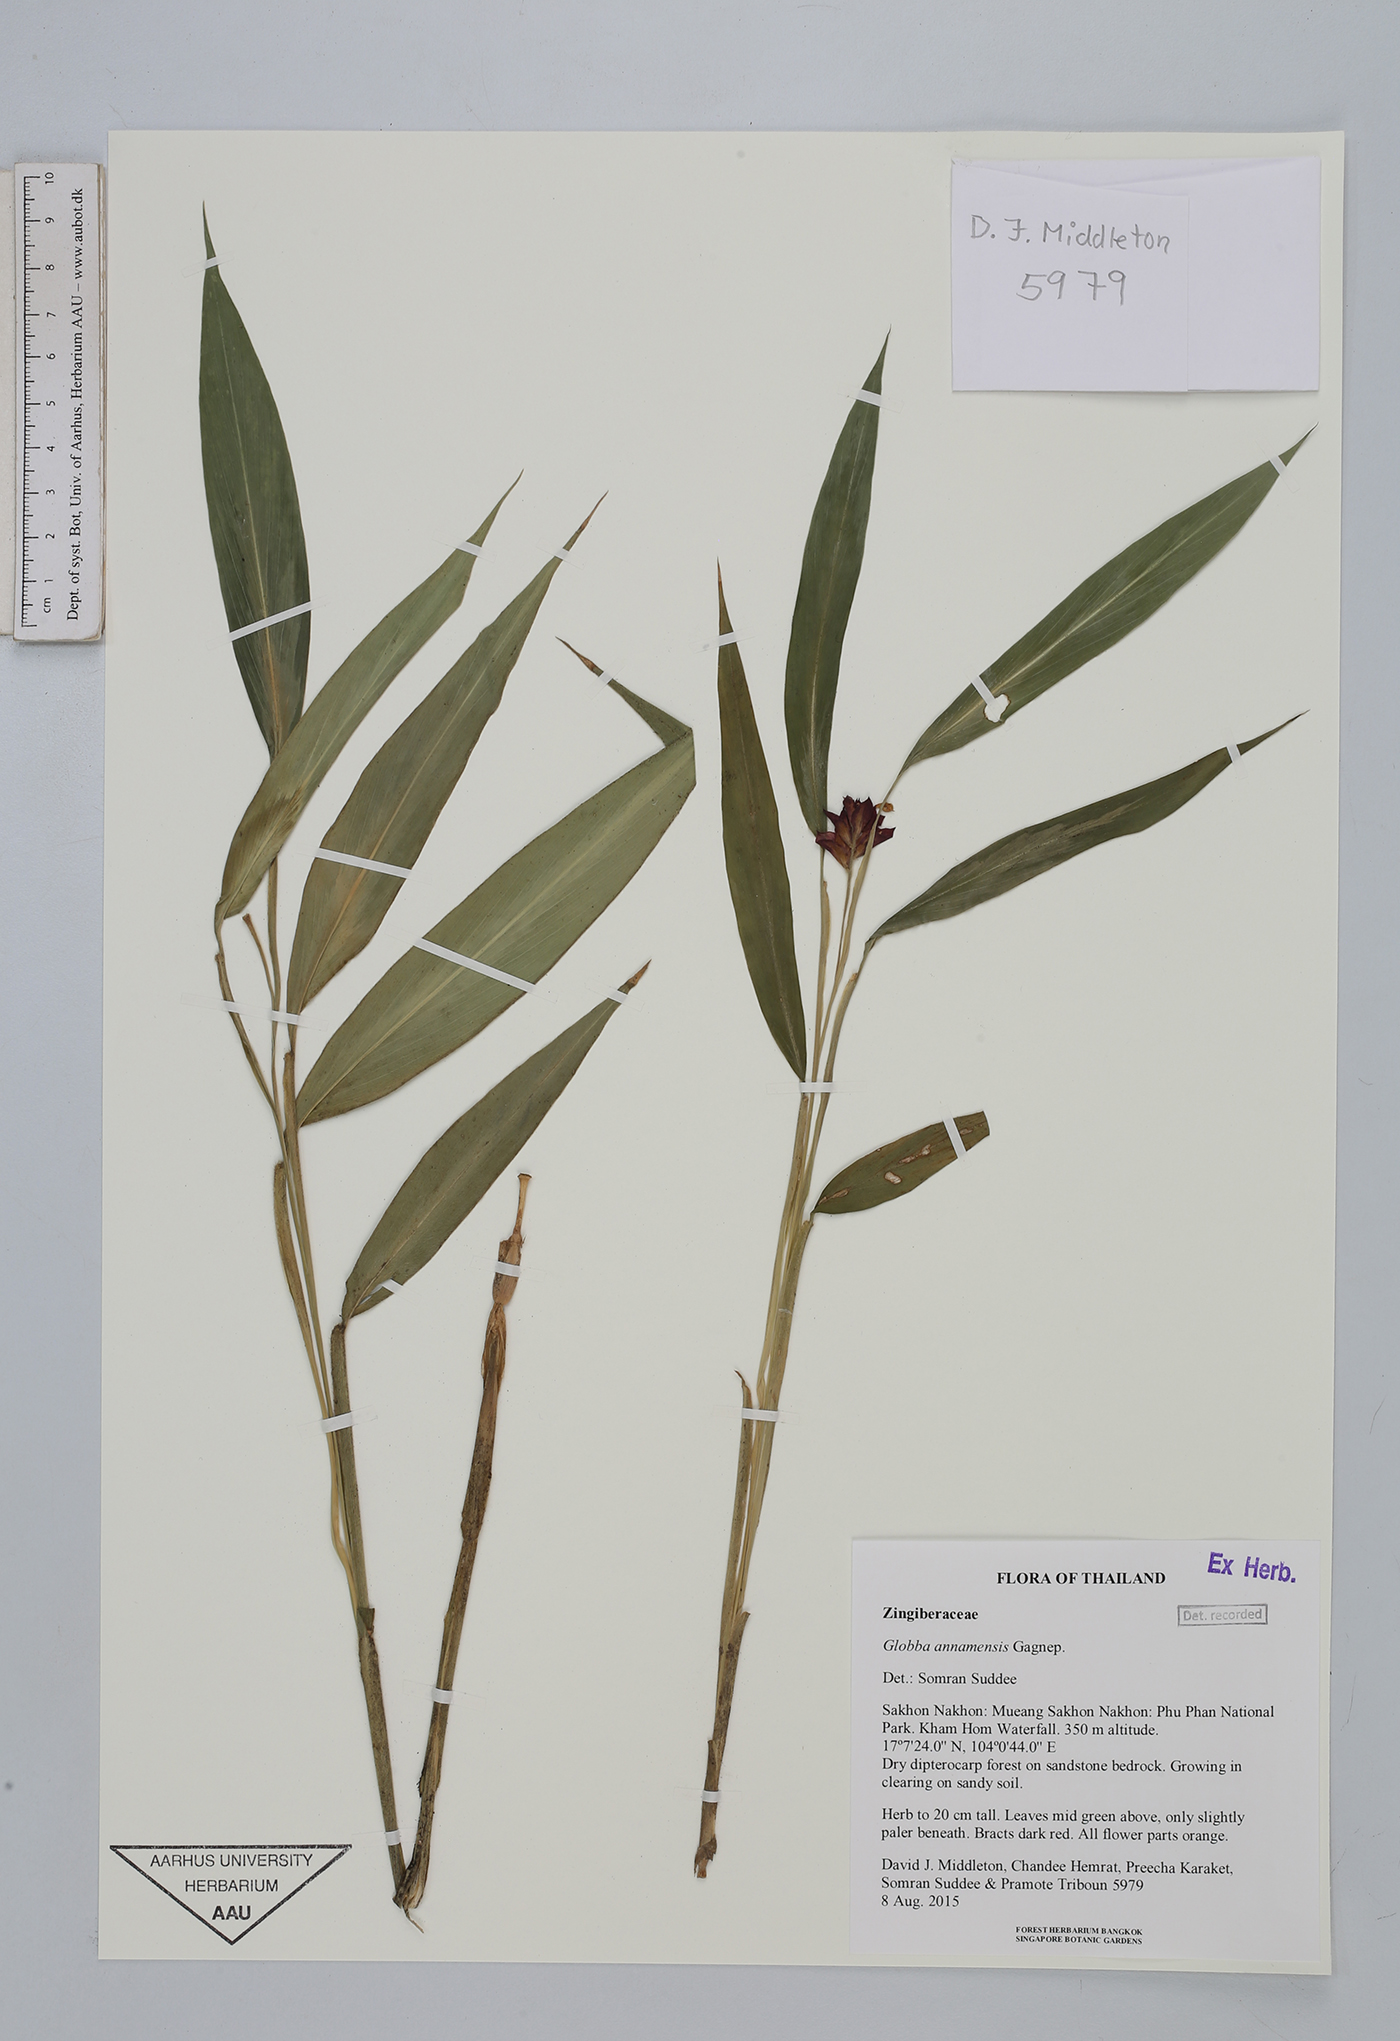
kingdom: Plantae
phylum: Tracheophyta
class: Liliopsida
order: Zingiberales
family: Zingiberaceae
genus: Globba
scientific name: Globba annamensis
